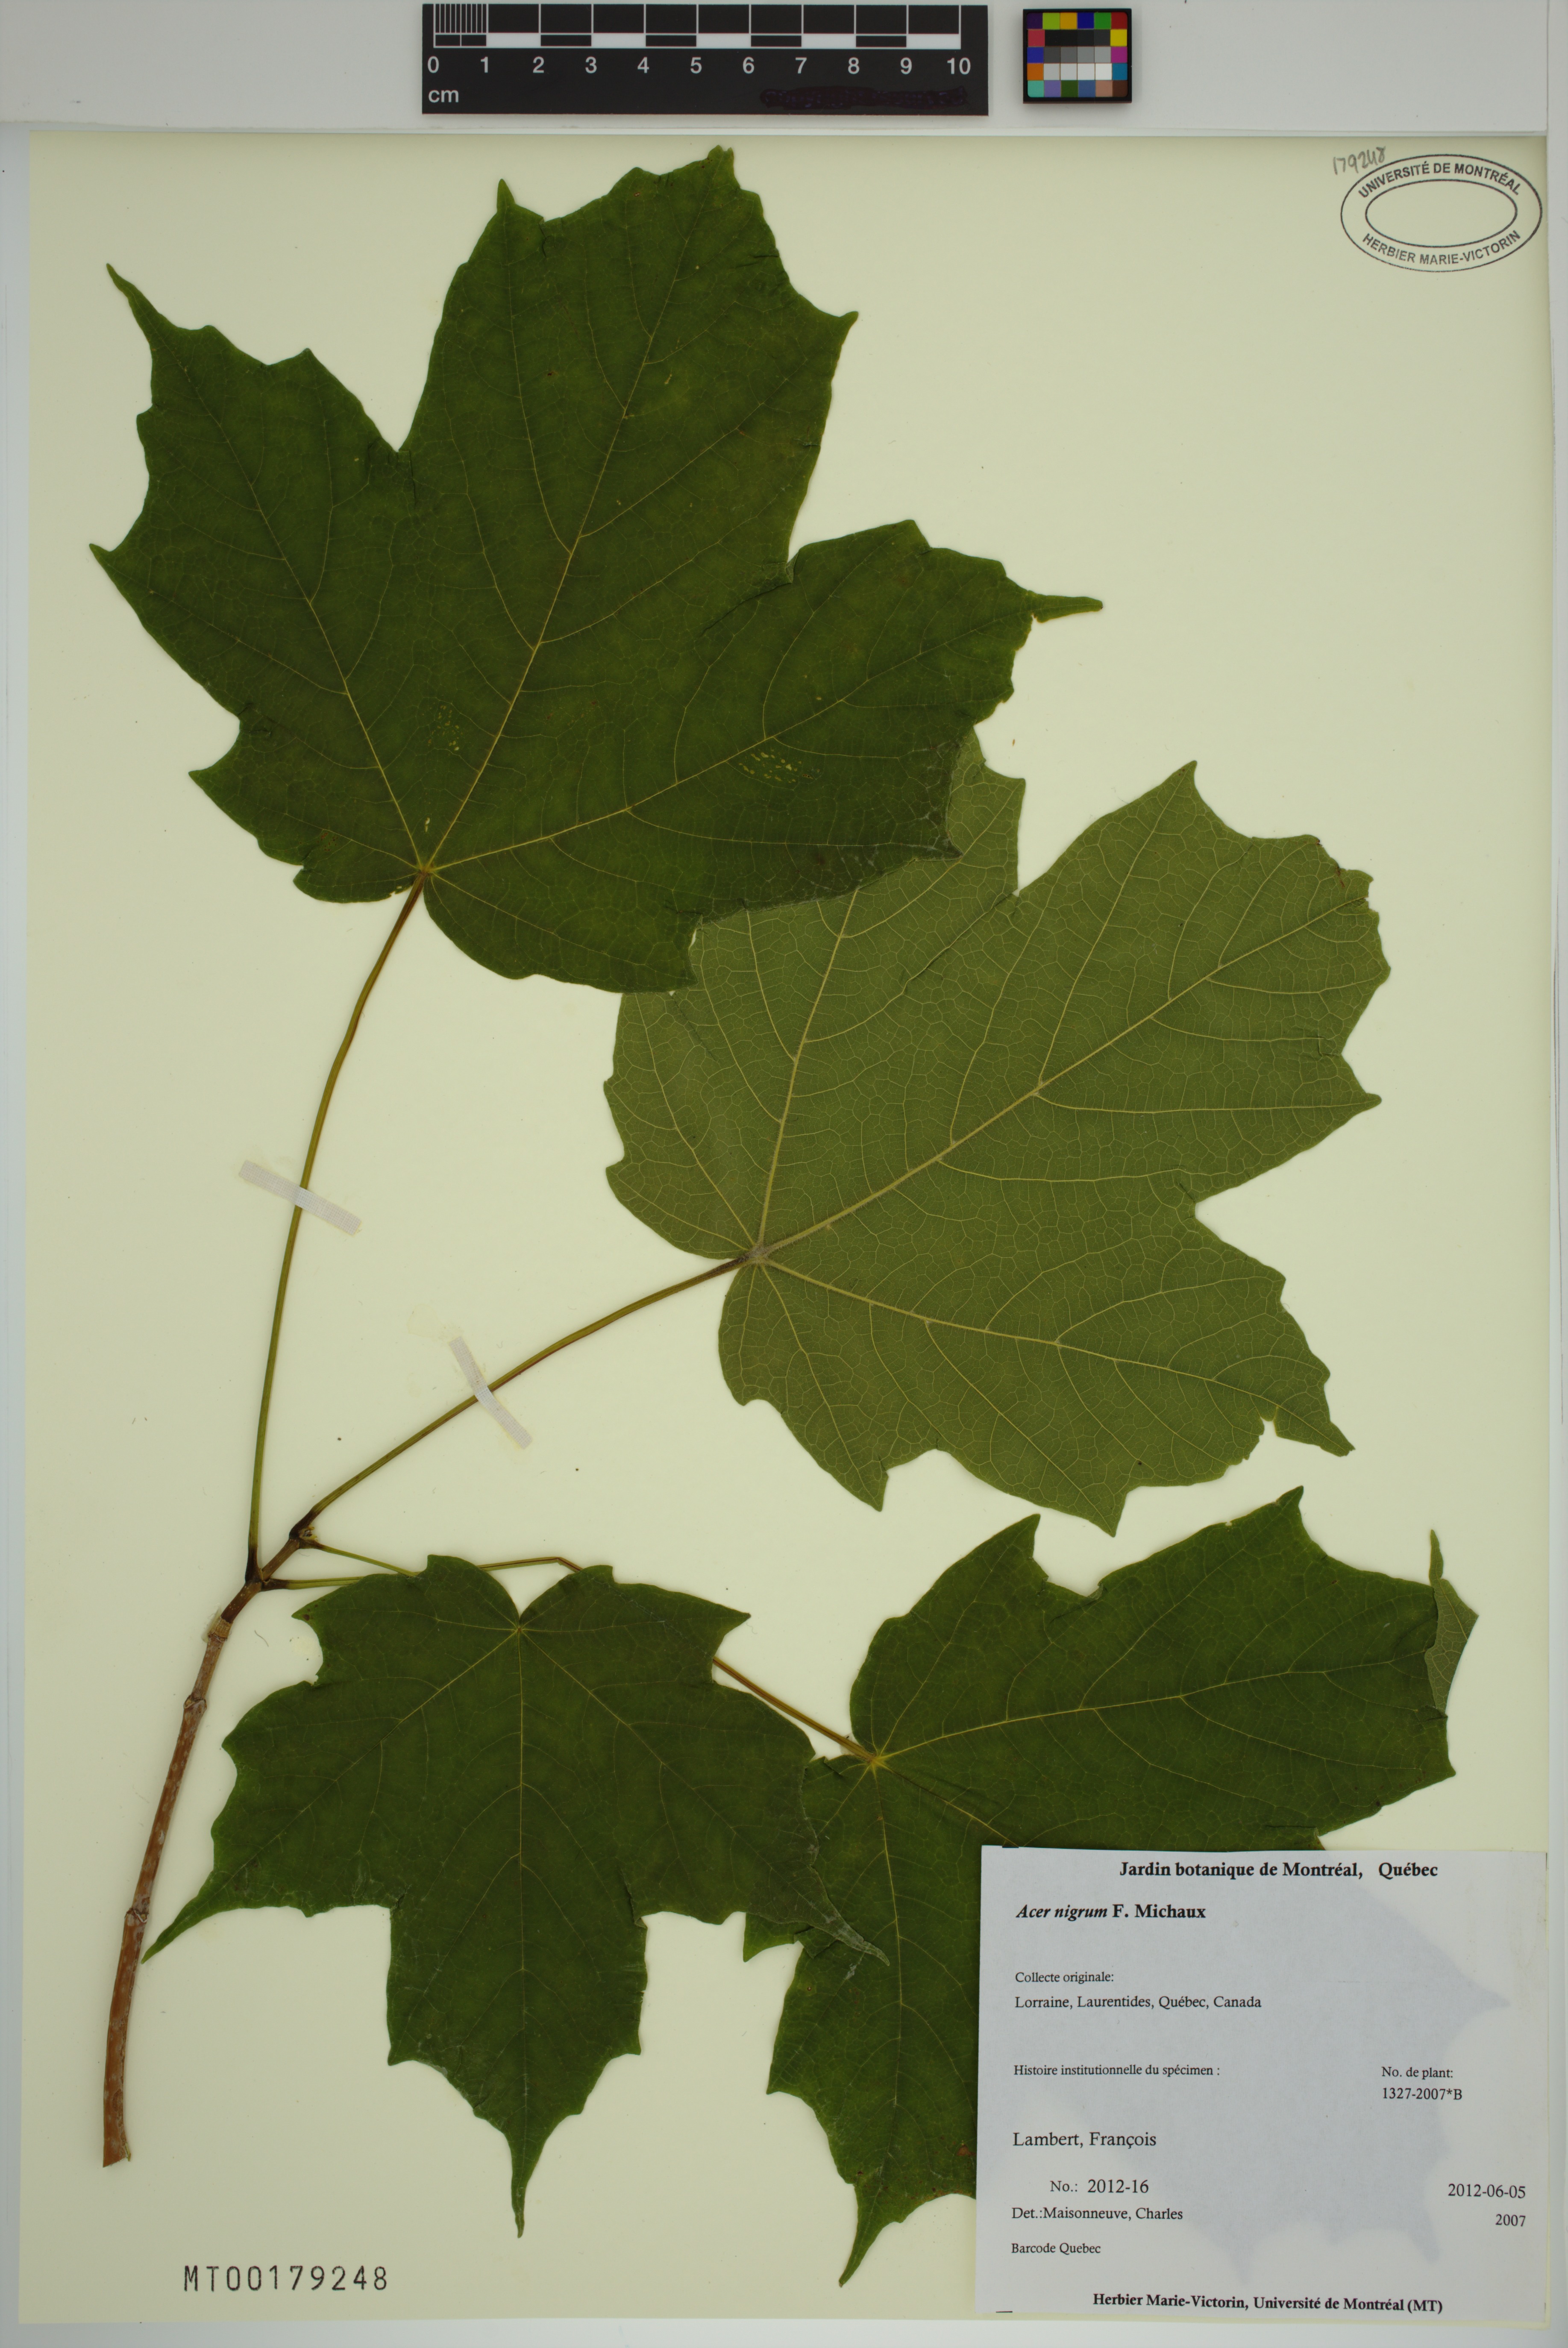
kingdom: Plantae
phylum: Tracheophyta
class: Magnoliopsida
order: Sapindales
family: Sapindaceae
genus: Acer
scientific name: Acer nigrum
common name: Black maple
